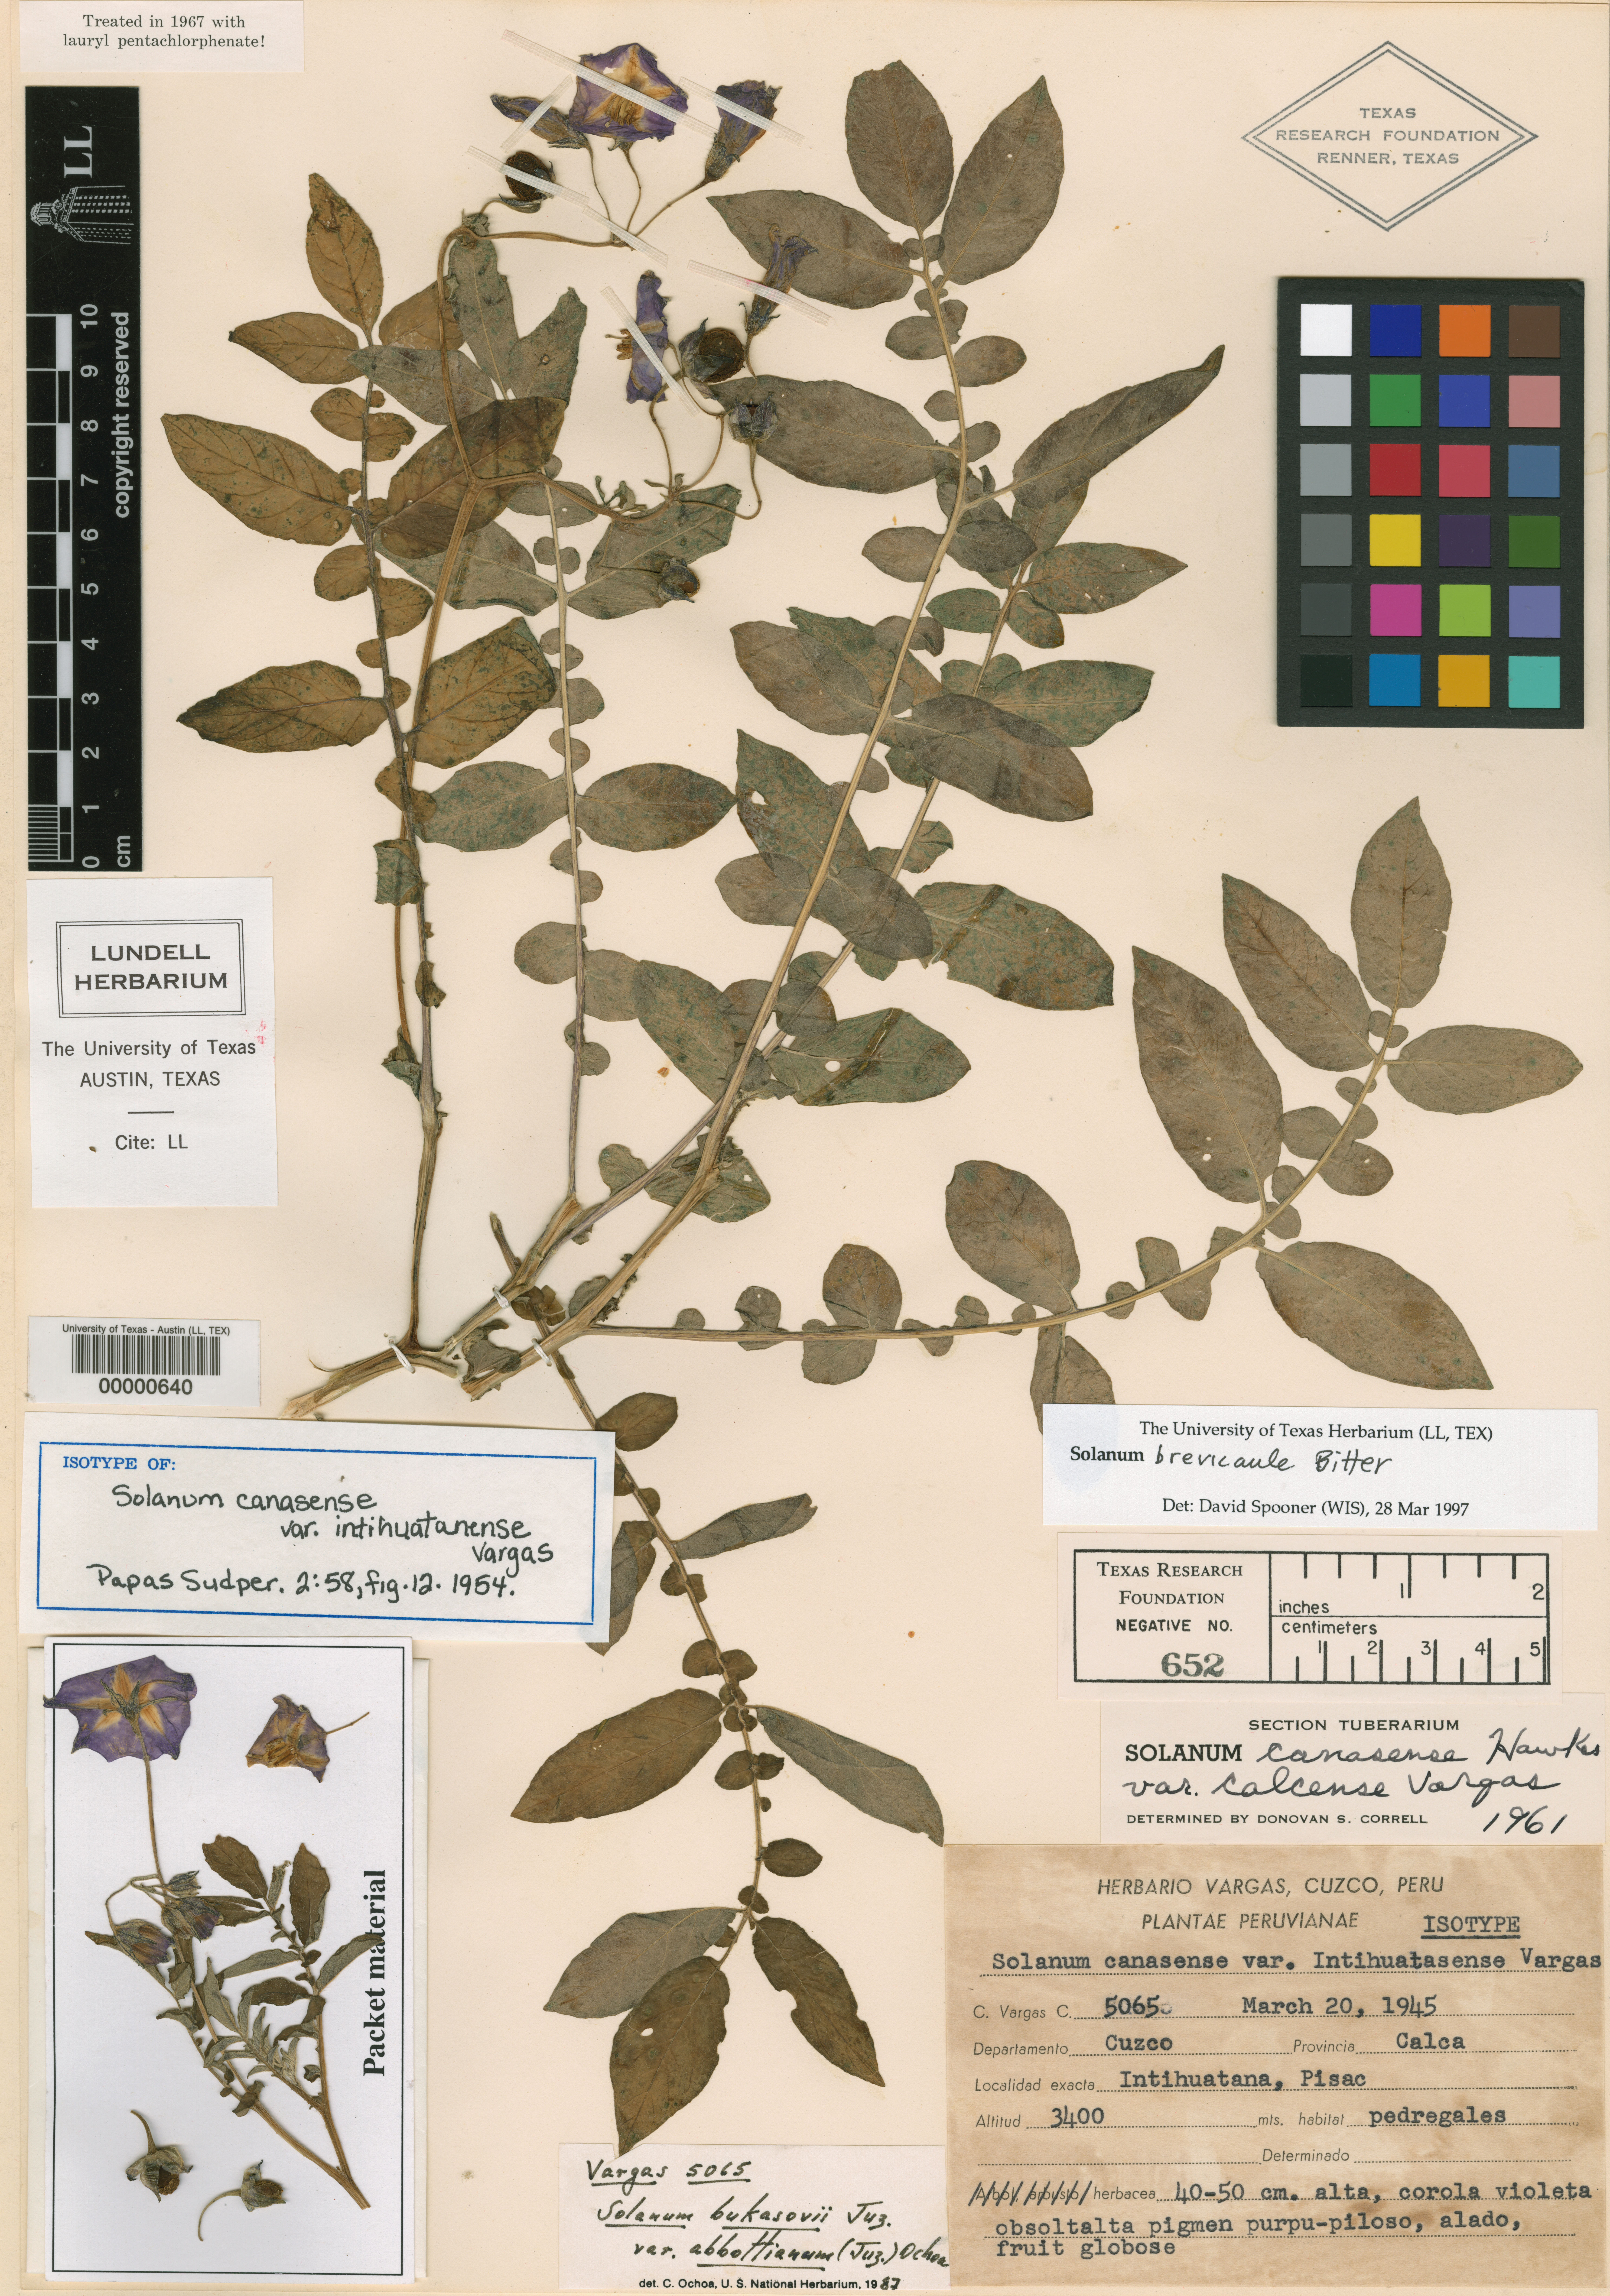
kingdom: Plantae
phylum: Tracheophyta
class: Magnoliopsida
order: Solanales
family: Solanaceae
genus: Solanum
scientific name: Solanum brevicaule
